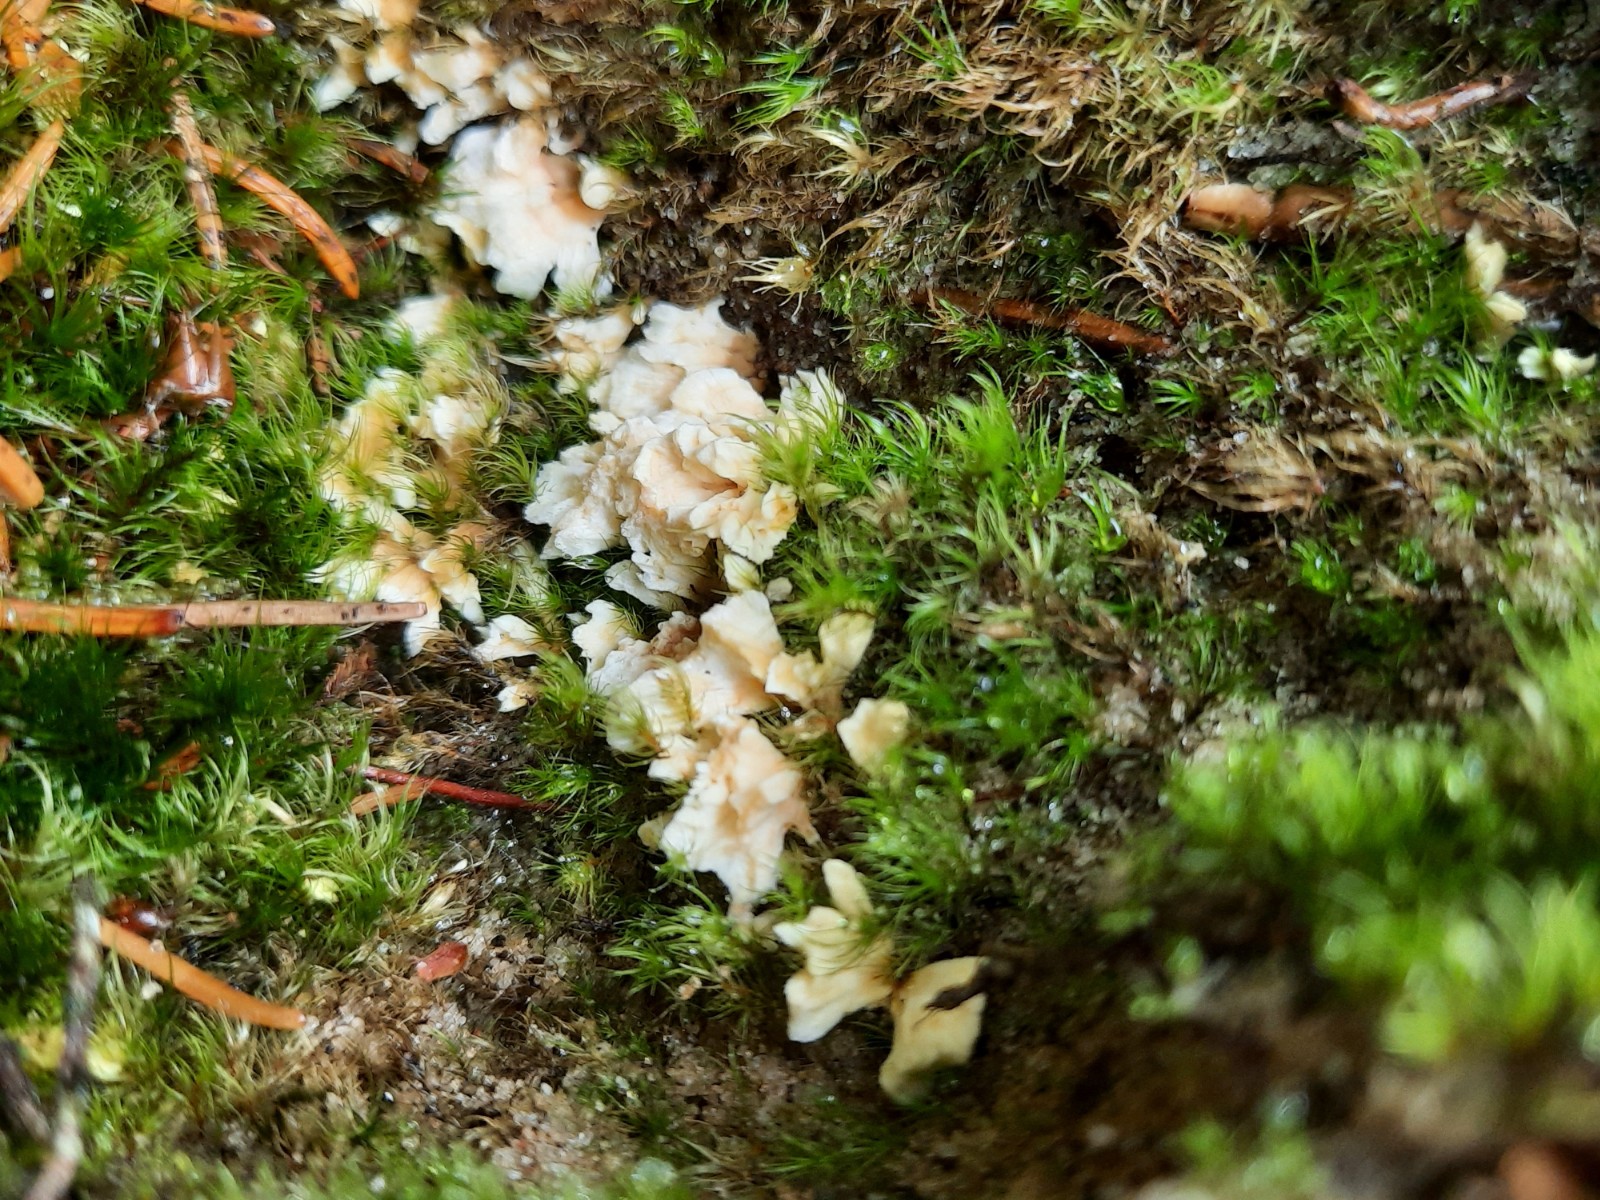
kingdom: Fungi
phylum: Basidiomycota
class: Agaricomycetes
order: Stereopsidales
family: Stereopsidaceae
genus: Stereopsis
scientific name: Stereopsis vitellina
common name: stilklædersvamp
